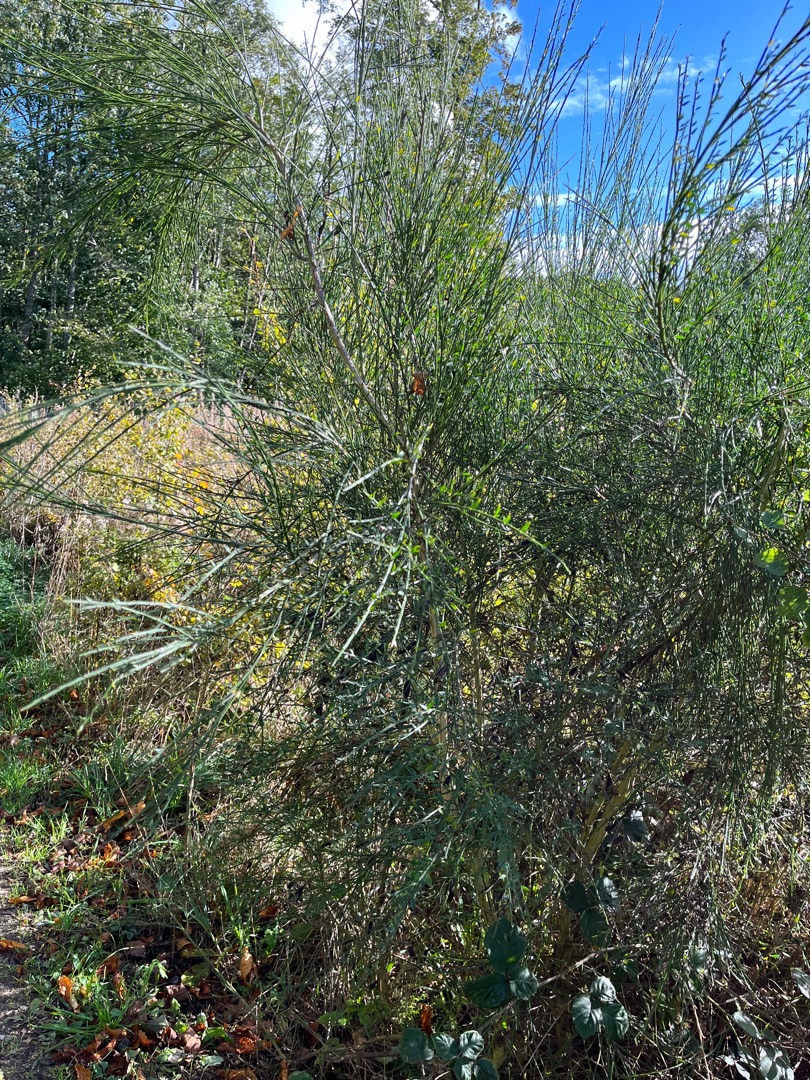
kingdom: Plantae
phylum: Tracheophyta
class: Magnoliopsida
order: Fabales
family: Fabaceae
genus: Cytisus
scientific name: Cytisus scoparius
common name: Almindelig gyvel
